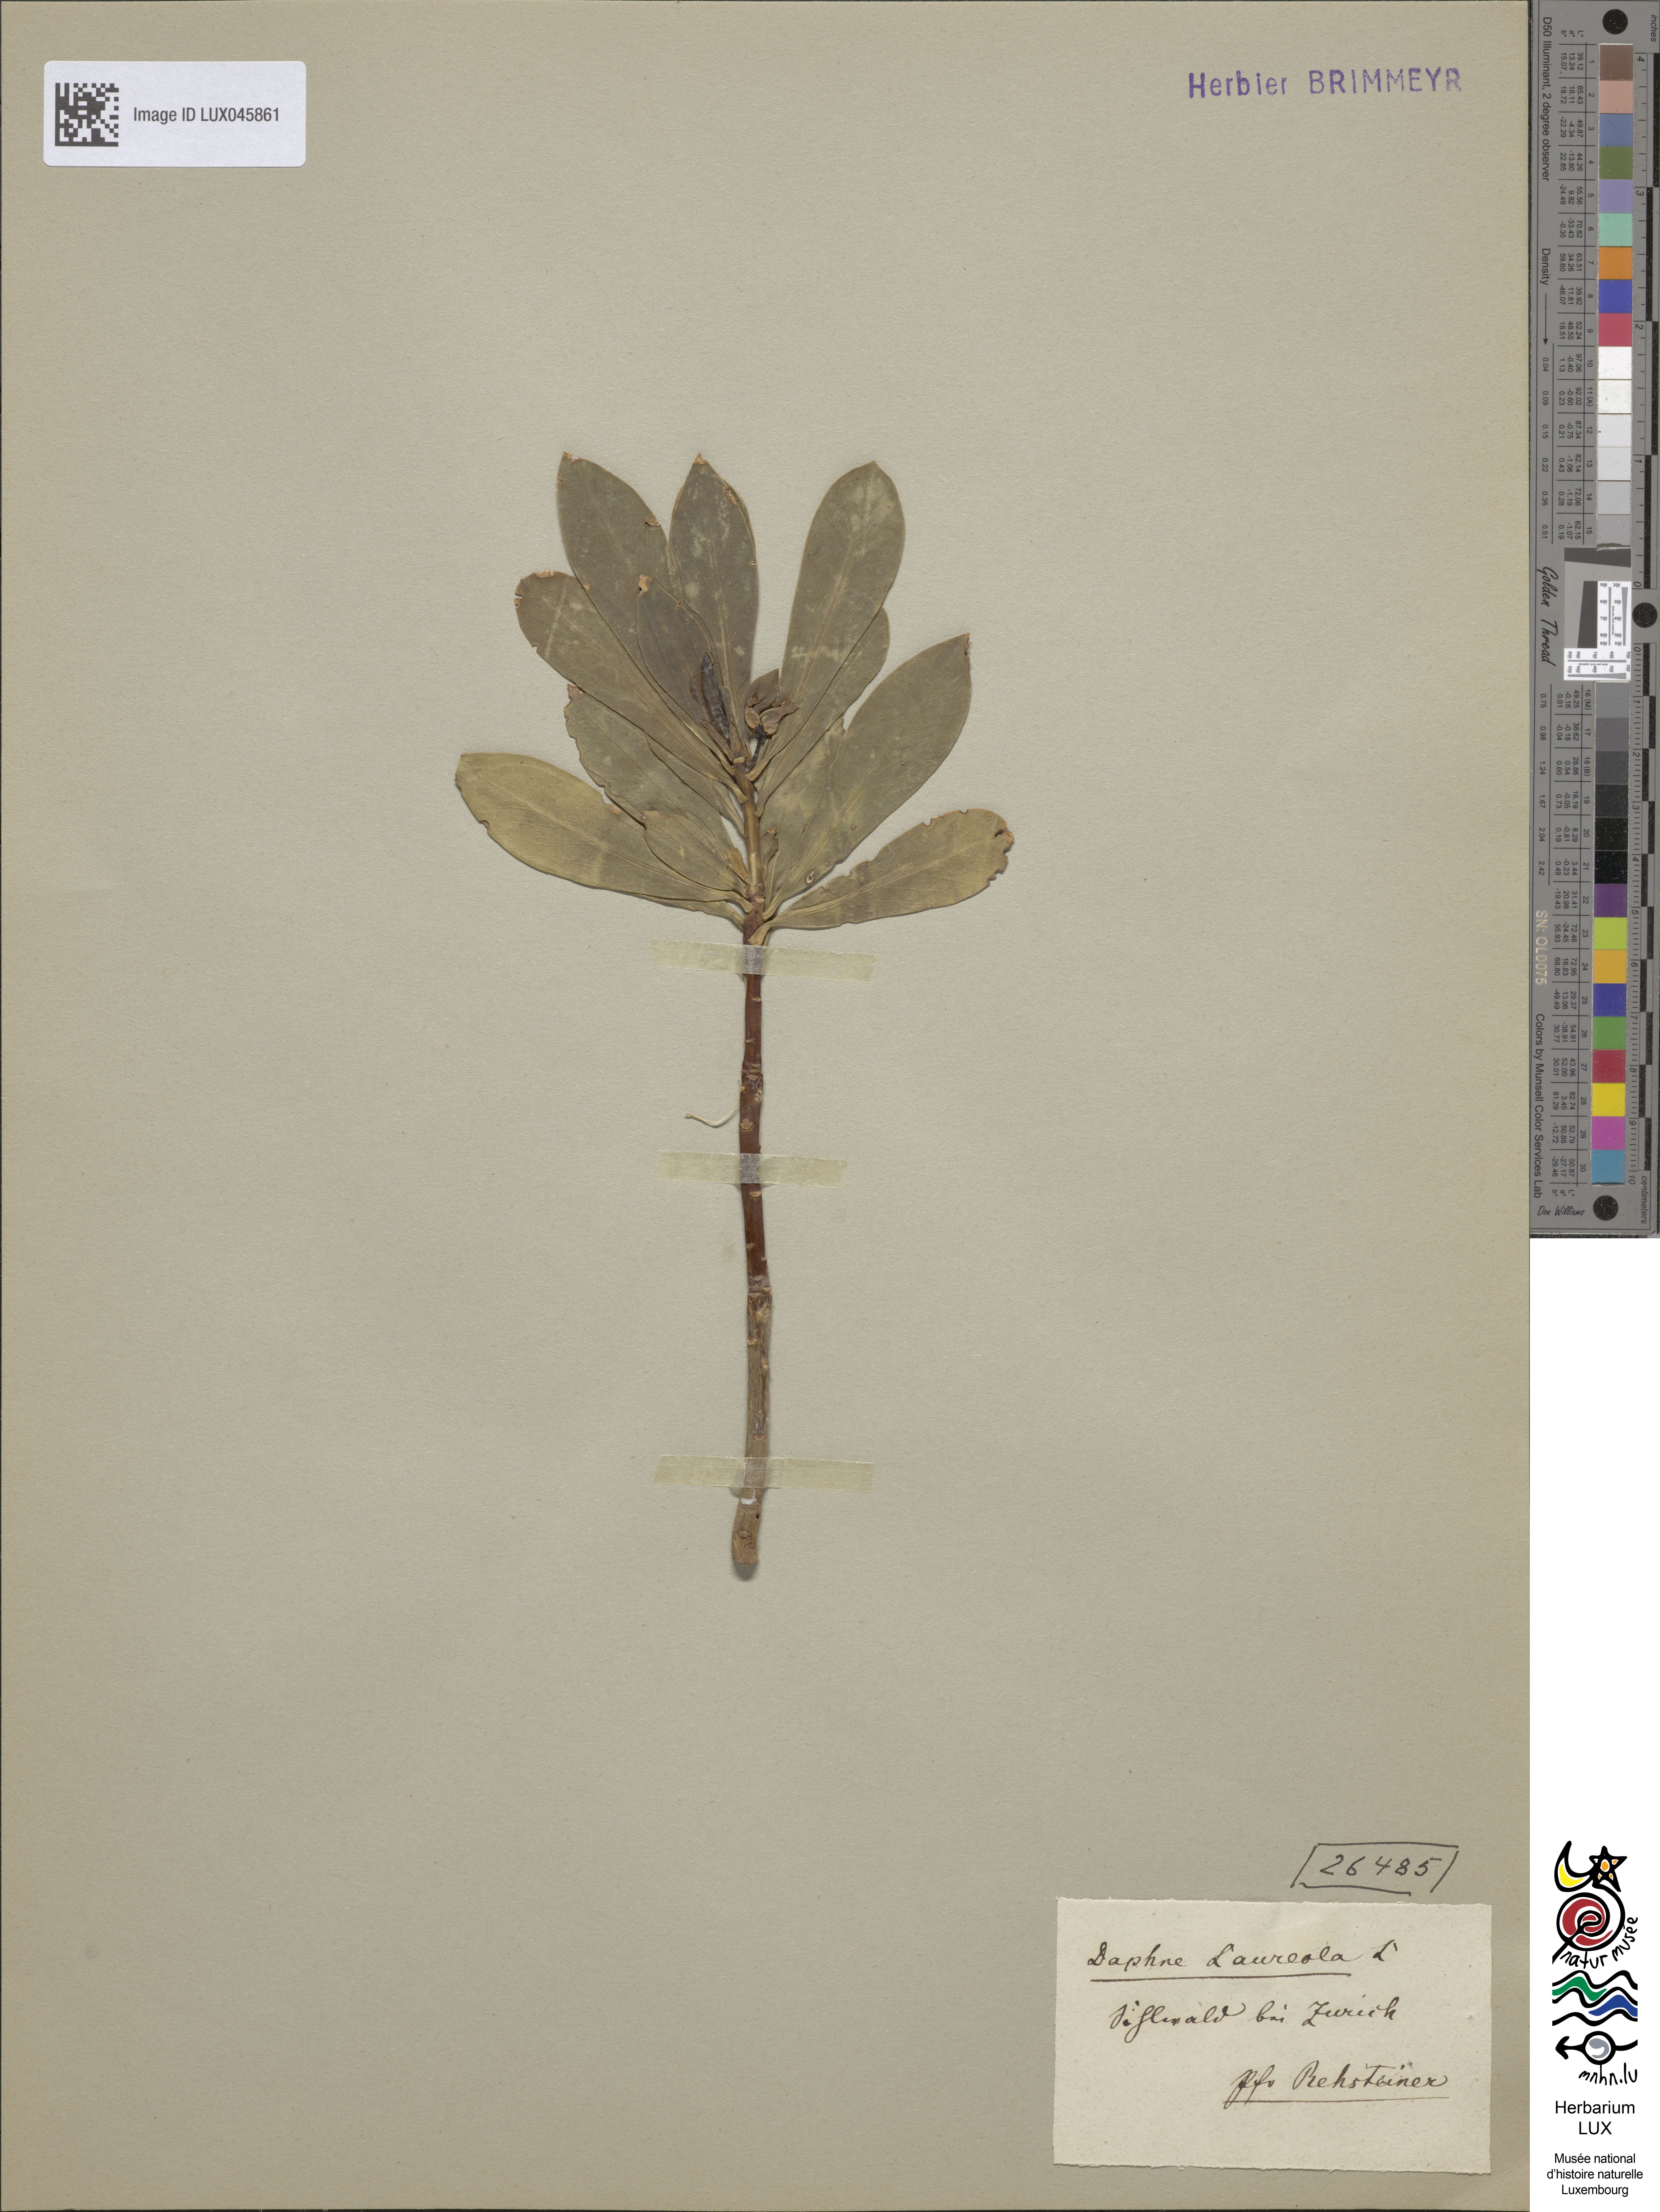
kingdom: Plantae
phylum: Tracheophyta
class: Magnoliopsida
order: Malvales
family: Thymelaeaceae
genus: Daphne
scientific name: Daphne laureola
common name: Spurge-laurel
